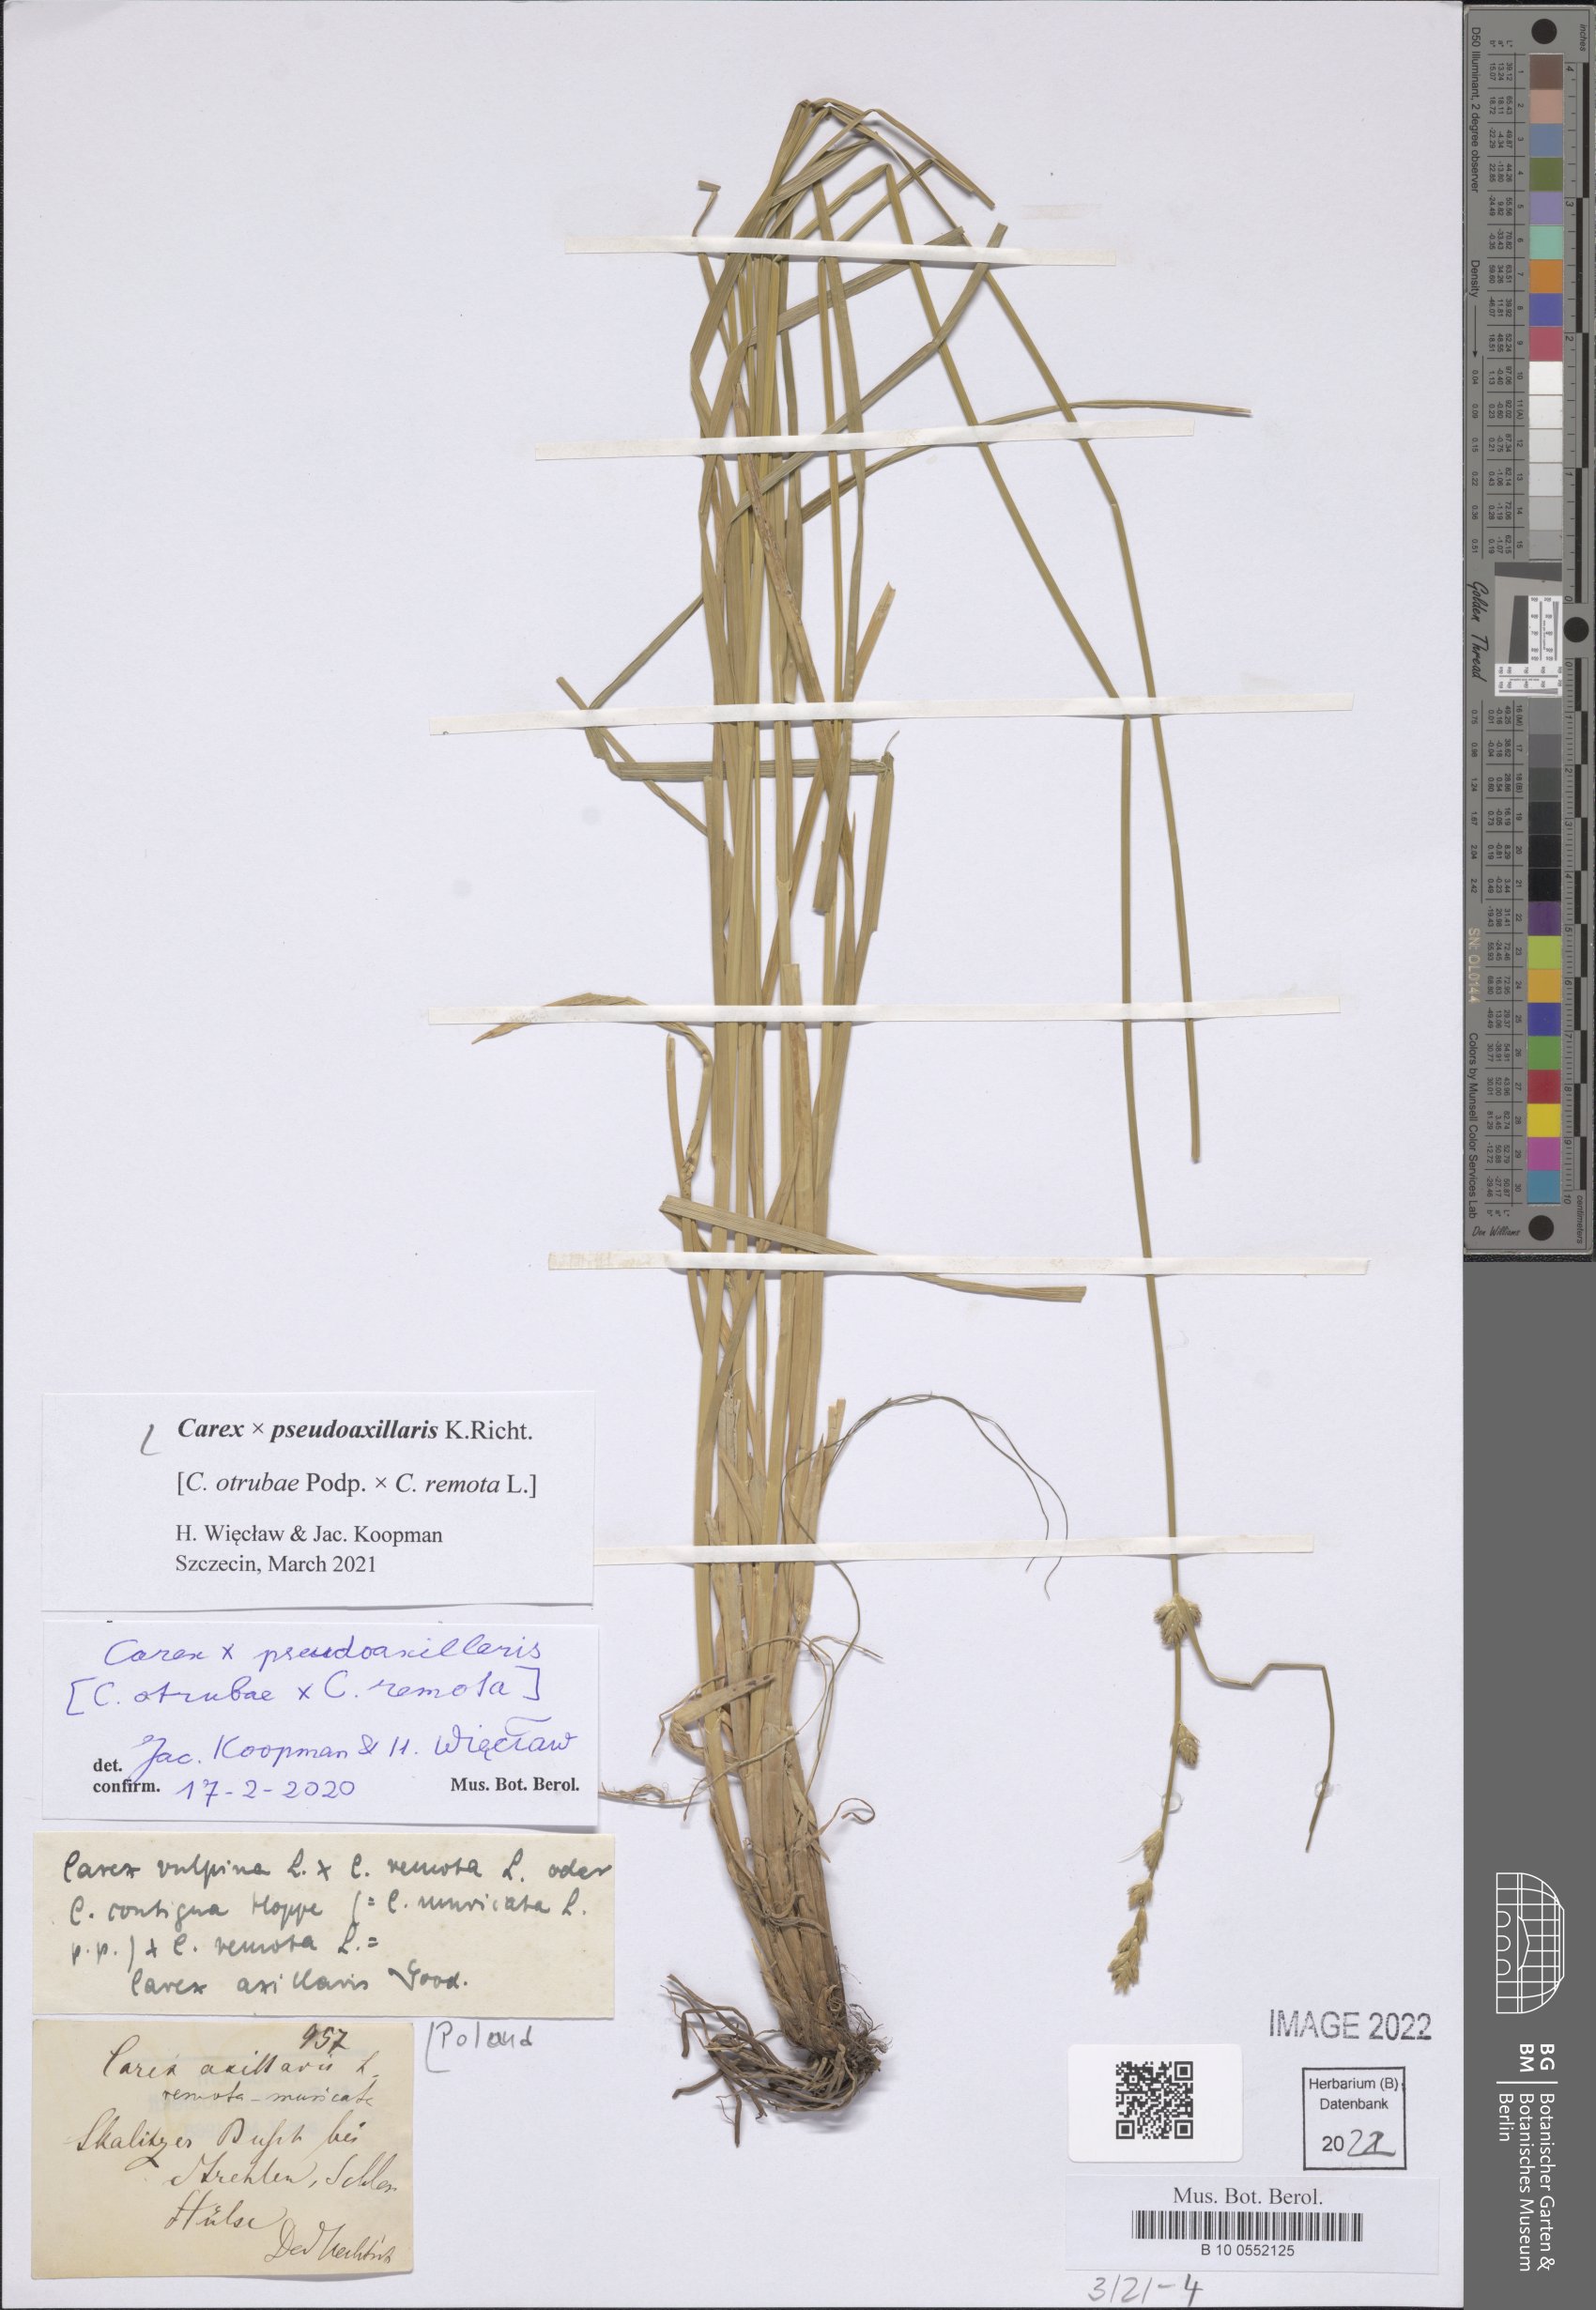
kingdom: Plantae
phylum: Tracheophyta
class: Liliopsida
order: Poales
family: Cyperaceae
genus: Carex
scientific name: Carex pseudoaxillaris
